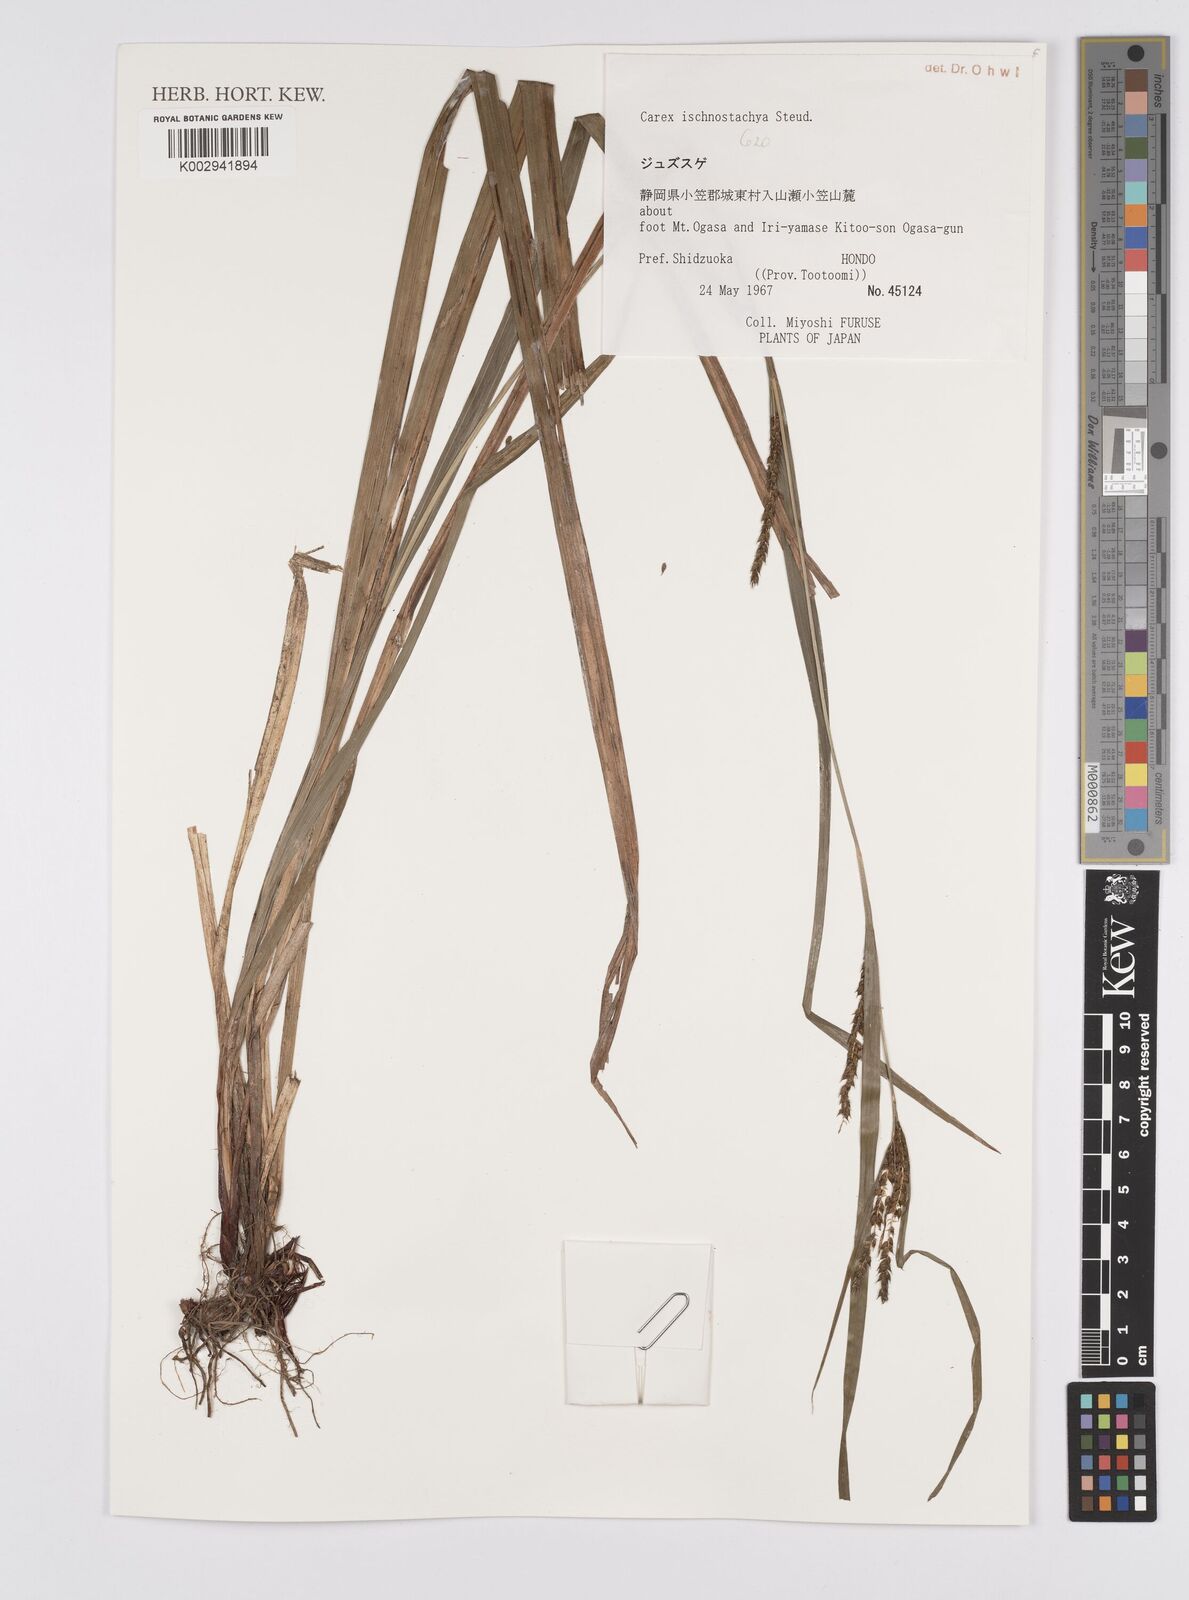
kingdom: Plantae
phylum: Tracheophyta
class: Liliopsida
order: Poales
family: Cyperaceae
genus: Carex
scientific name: Carex ischnostachya
